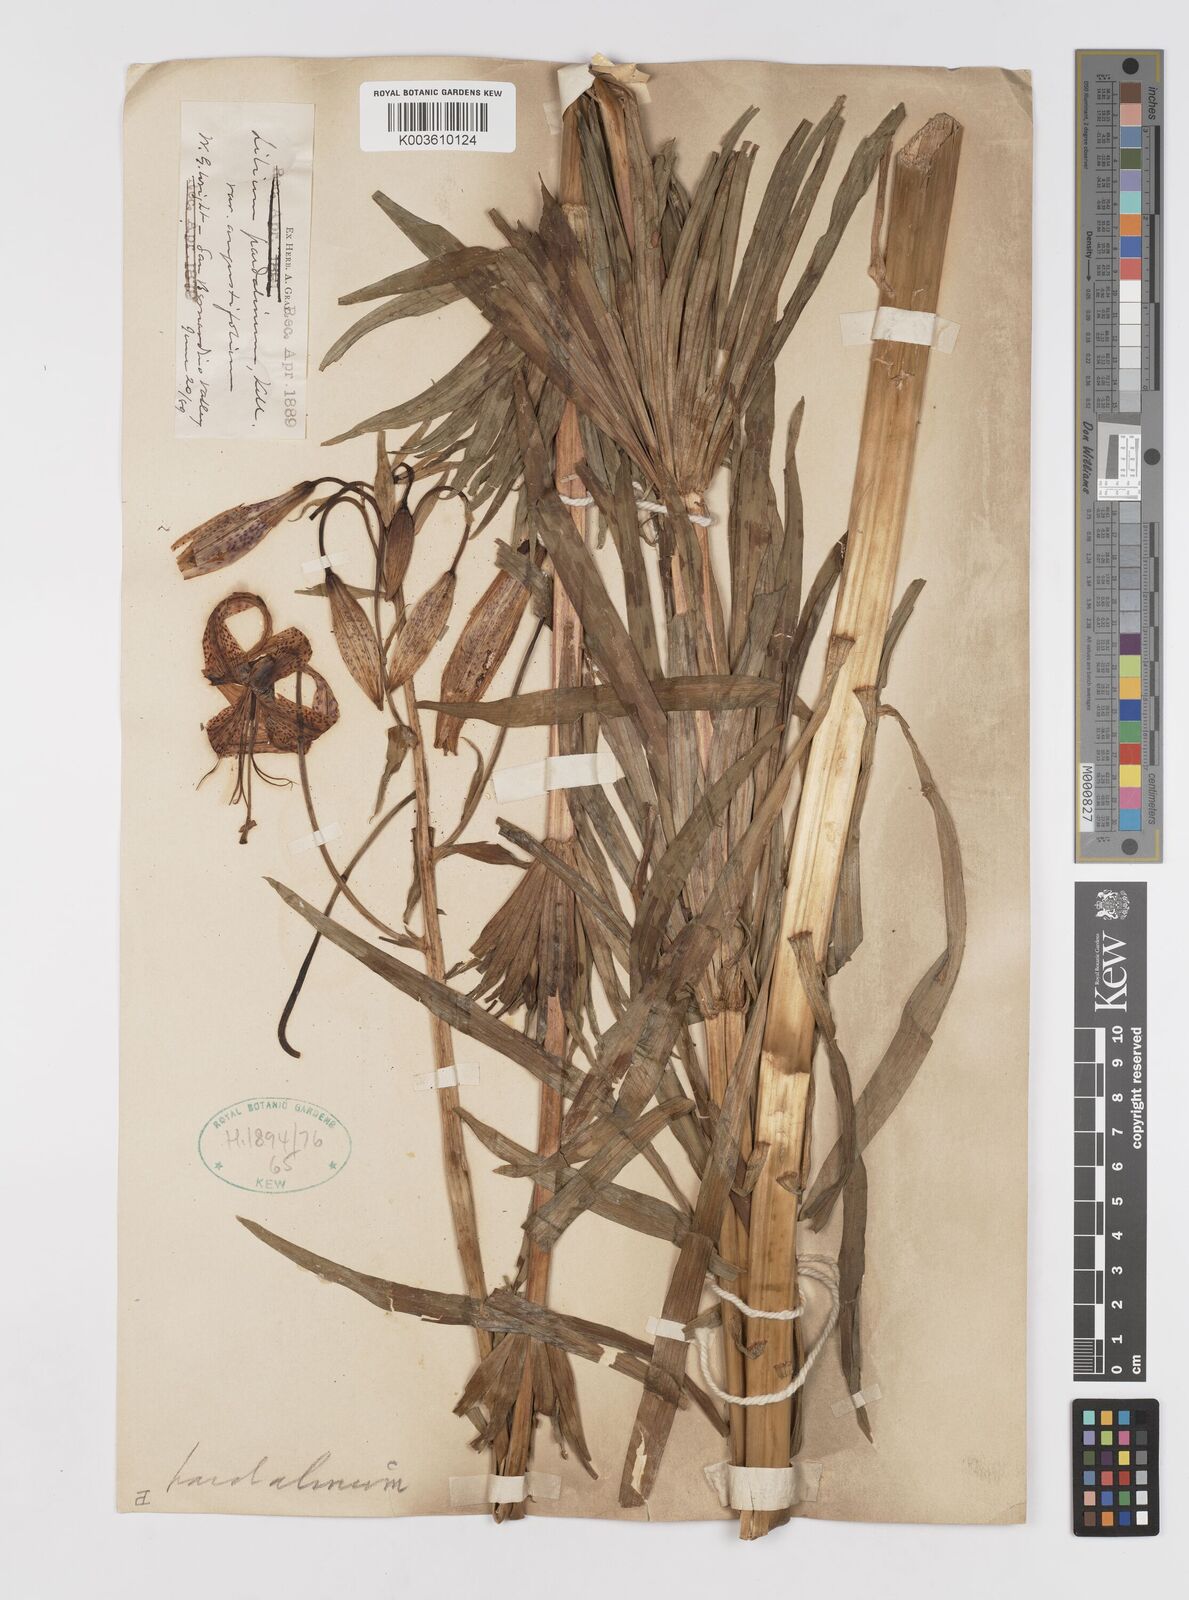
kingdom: Plantae
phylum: Tracheophyta
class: Liliopsida
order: Liliales
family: Liliaceae
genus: Lilium
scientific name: Lilium pardalinum
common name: Panther lily
